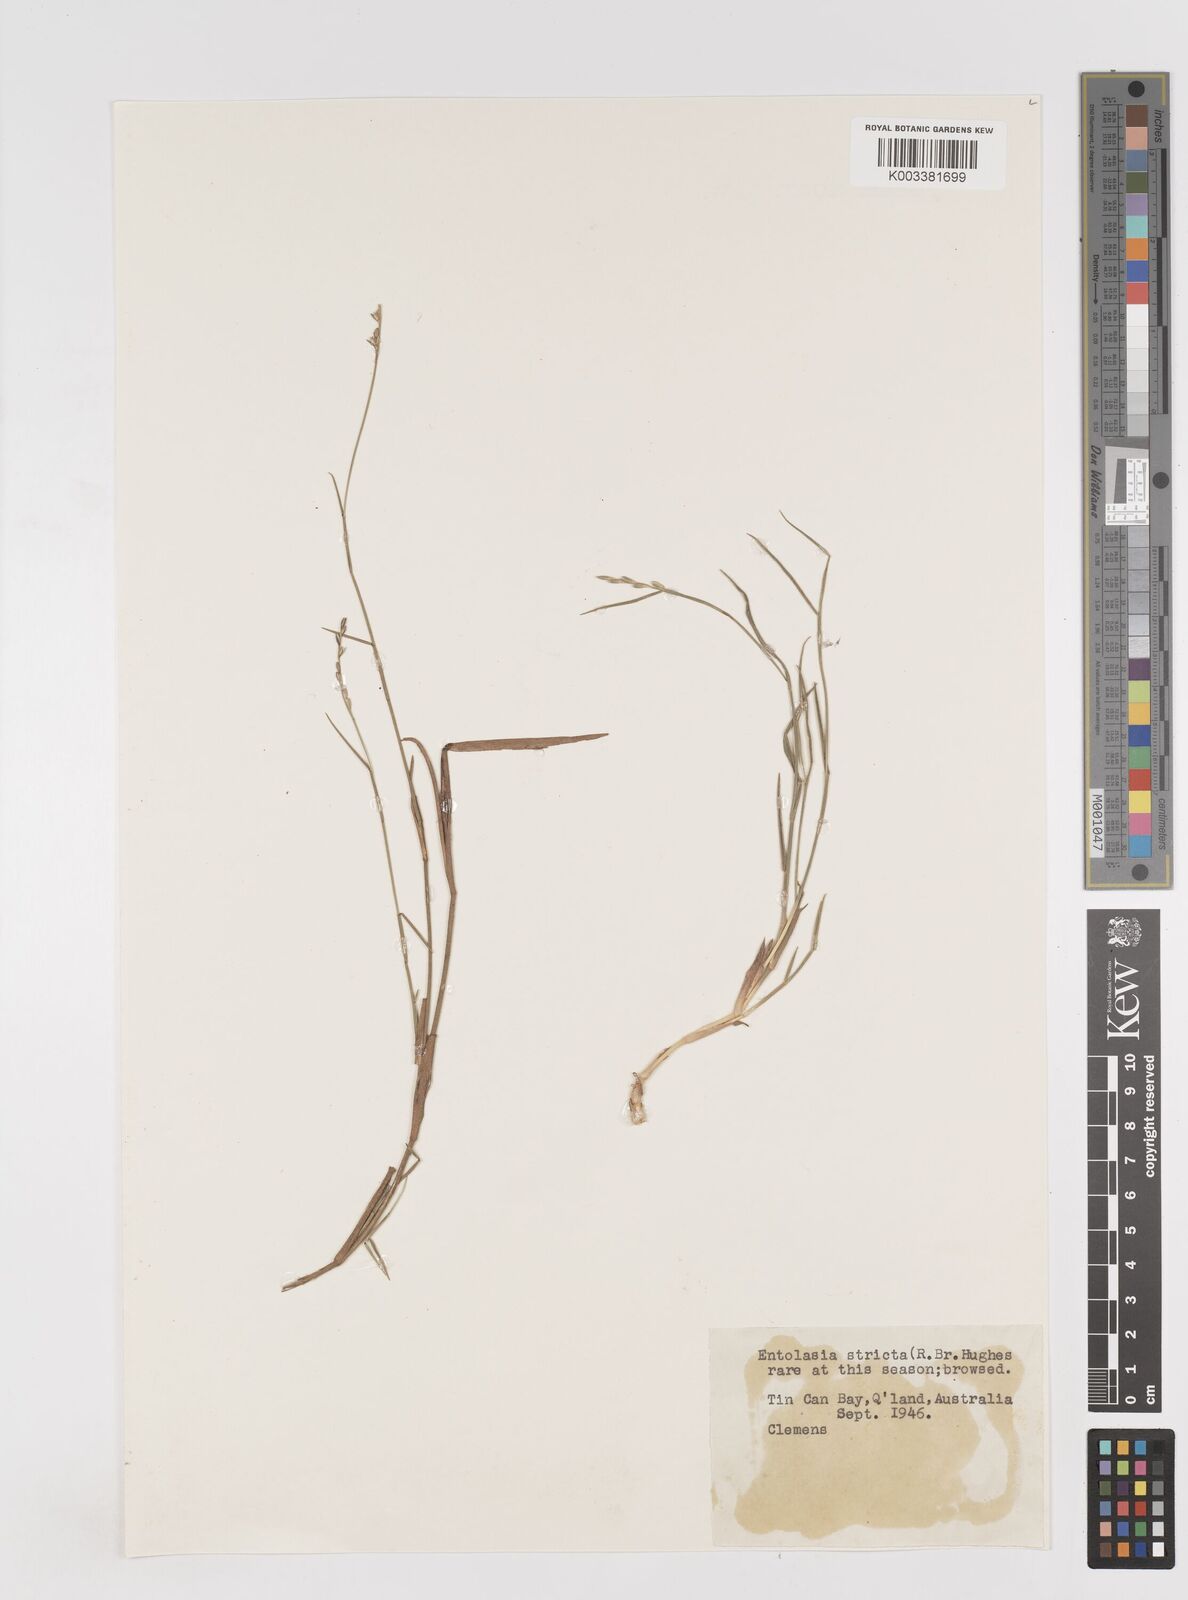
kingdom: Plantae
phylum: Tracheophyta
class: Liliopsida
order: Poales
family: Poaceae
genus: Entolasia
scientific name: Entolasia stricta
